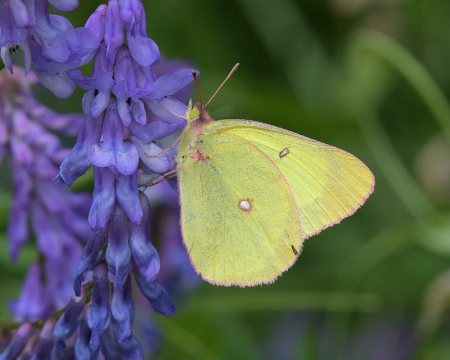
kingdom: Animalia
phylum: Arthropoda
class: Insecta
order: Lepidoptera
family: Pieridae
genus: Colias
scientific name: Colias interior
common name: Pink-edged Sulphur
